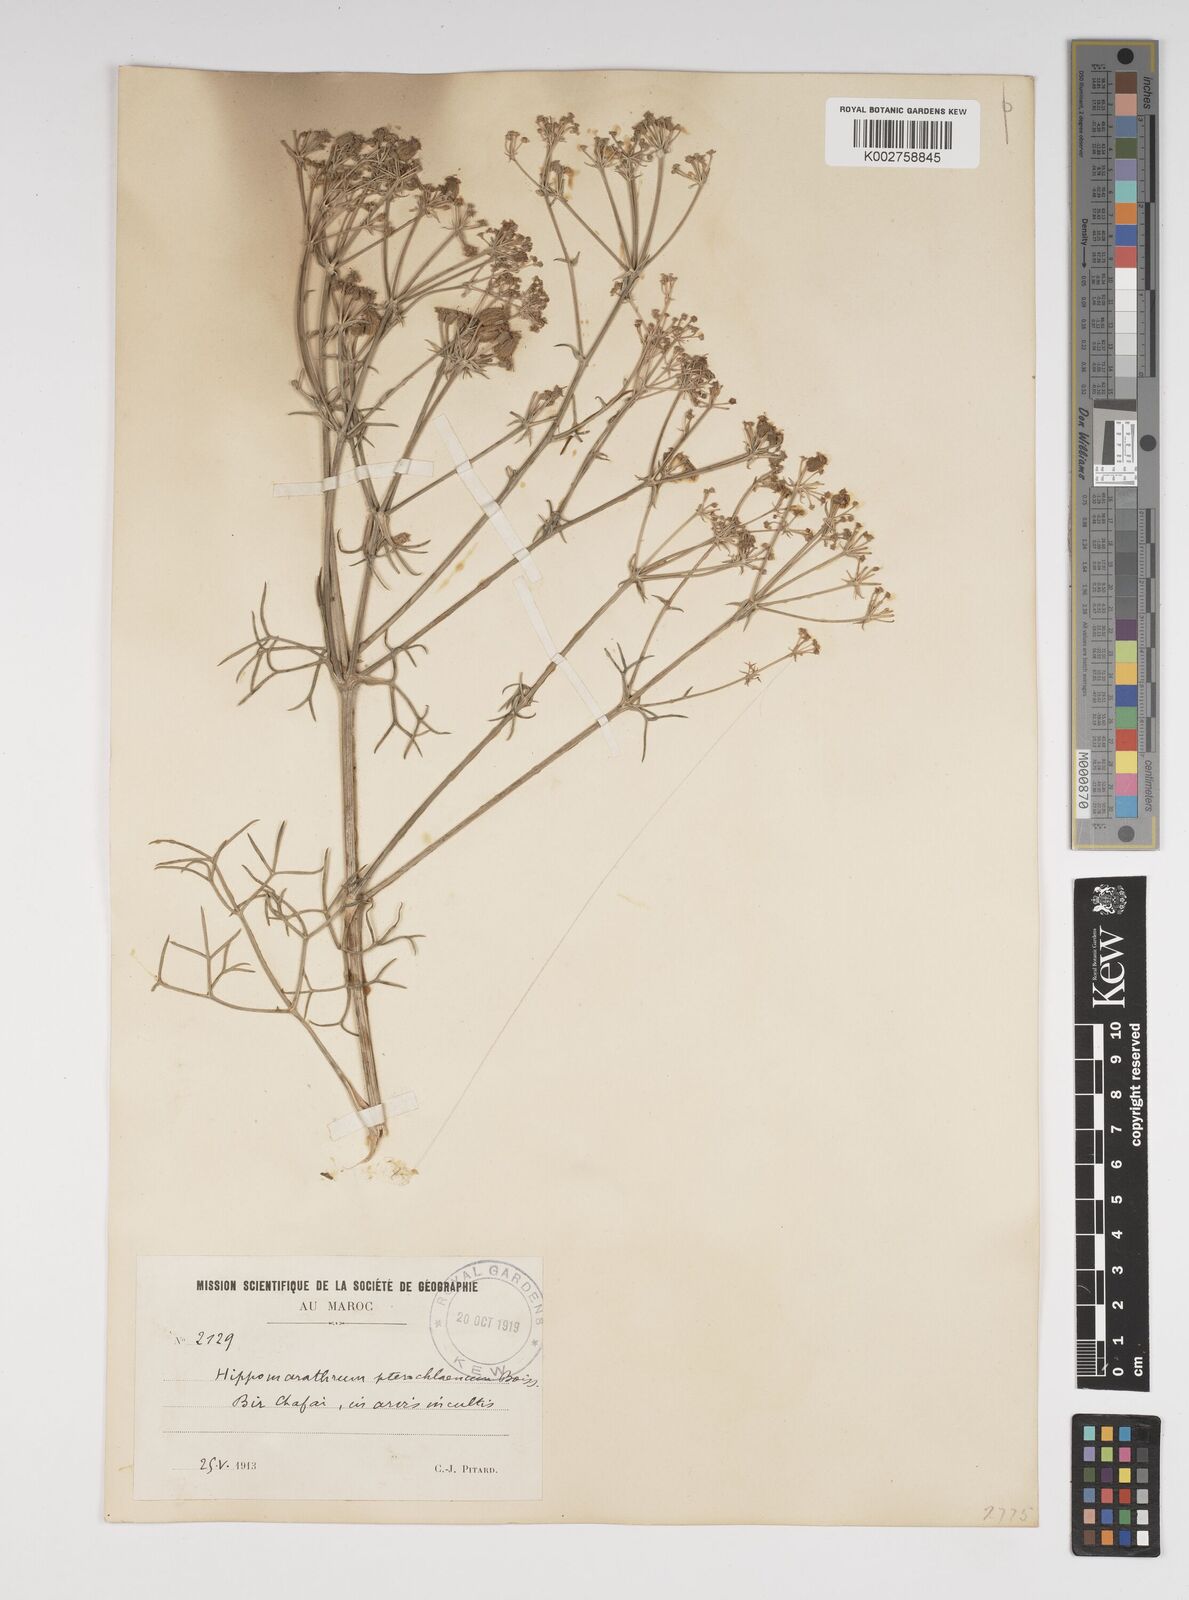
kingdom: Plantae
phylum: Tracheophyta
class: Magnoliopsida
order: Apiales
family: Apiaceae
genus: Cachrys
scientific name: Cachrys sicula
